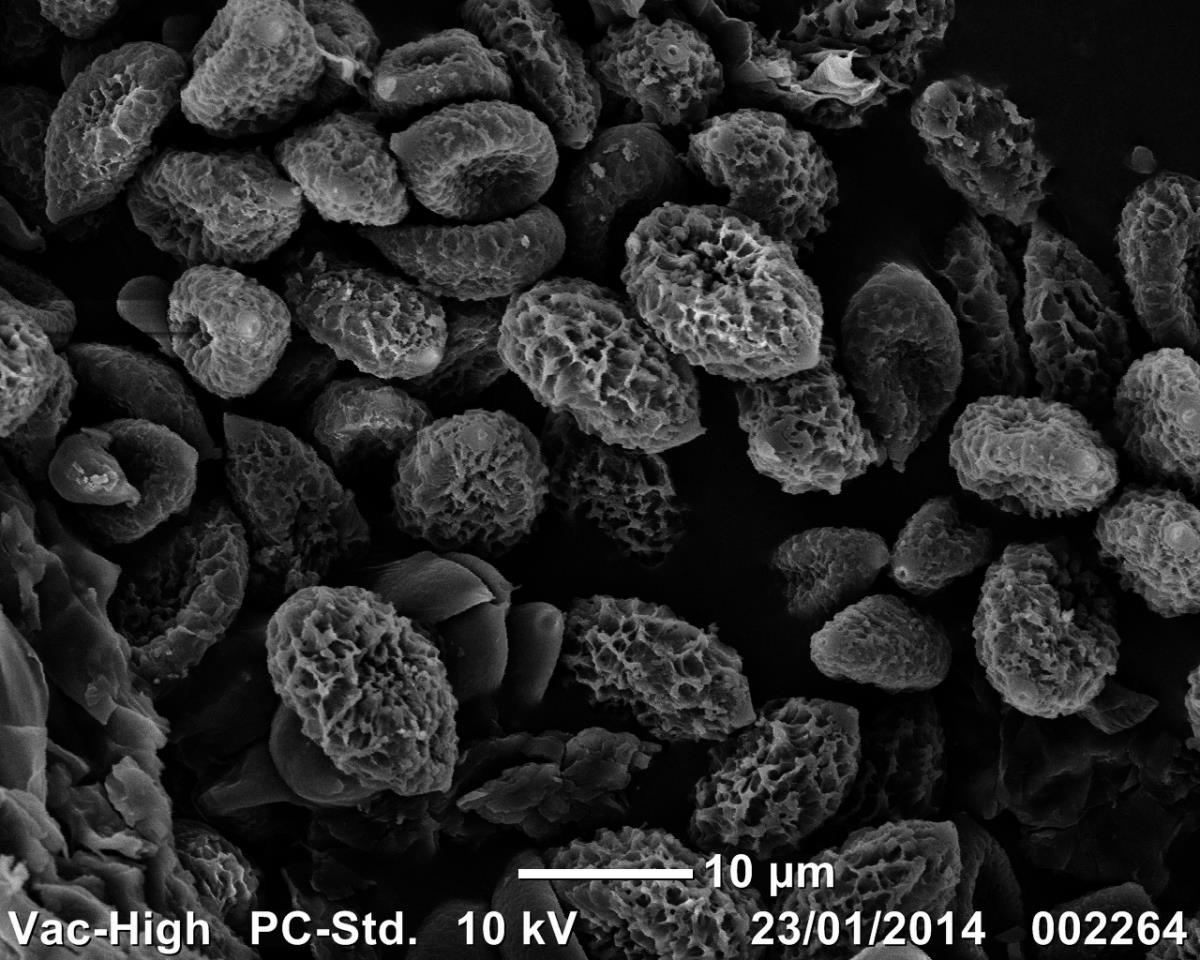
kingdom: Fungi
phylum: Basidiomycota
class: Agaricomycetes
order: Agaricales
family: Cortinariaceae
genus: Cortinarius
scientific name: Cortinarius
